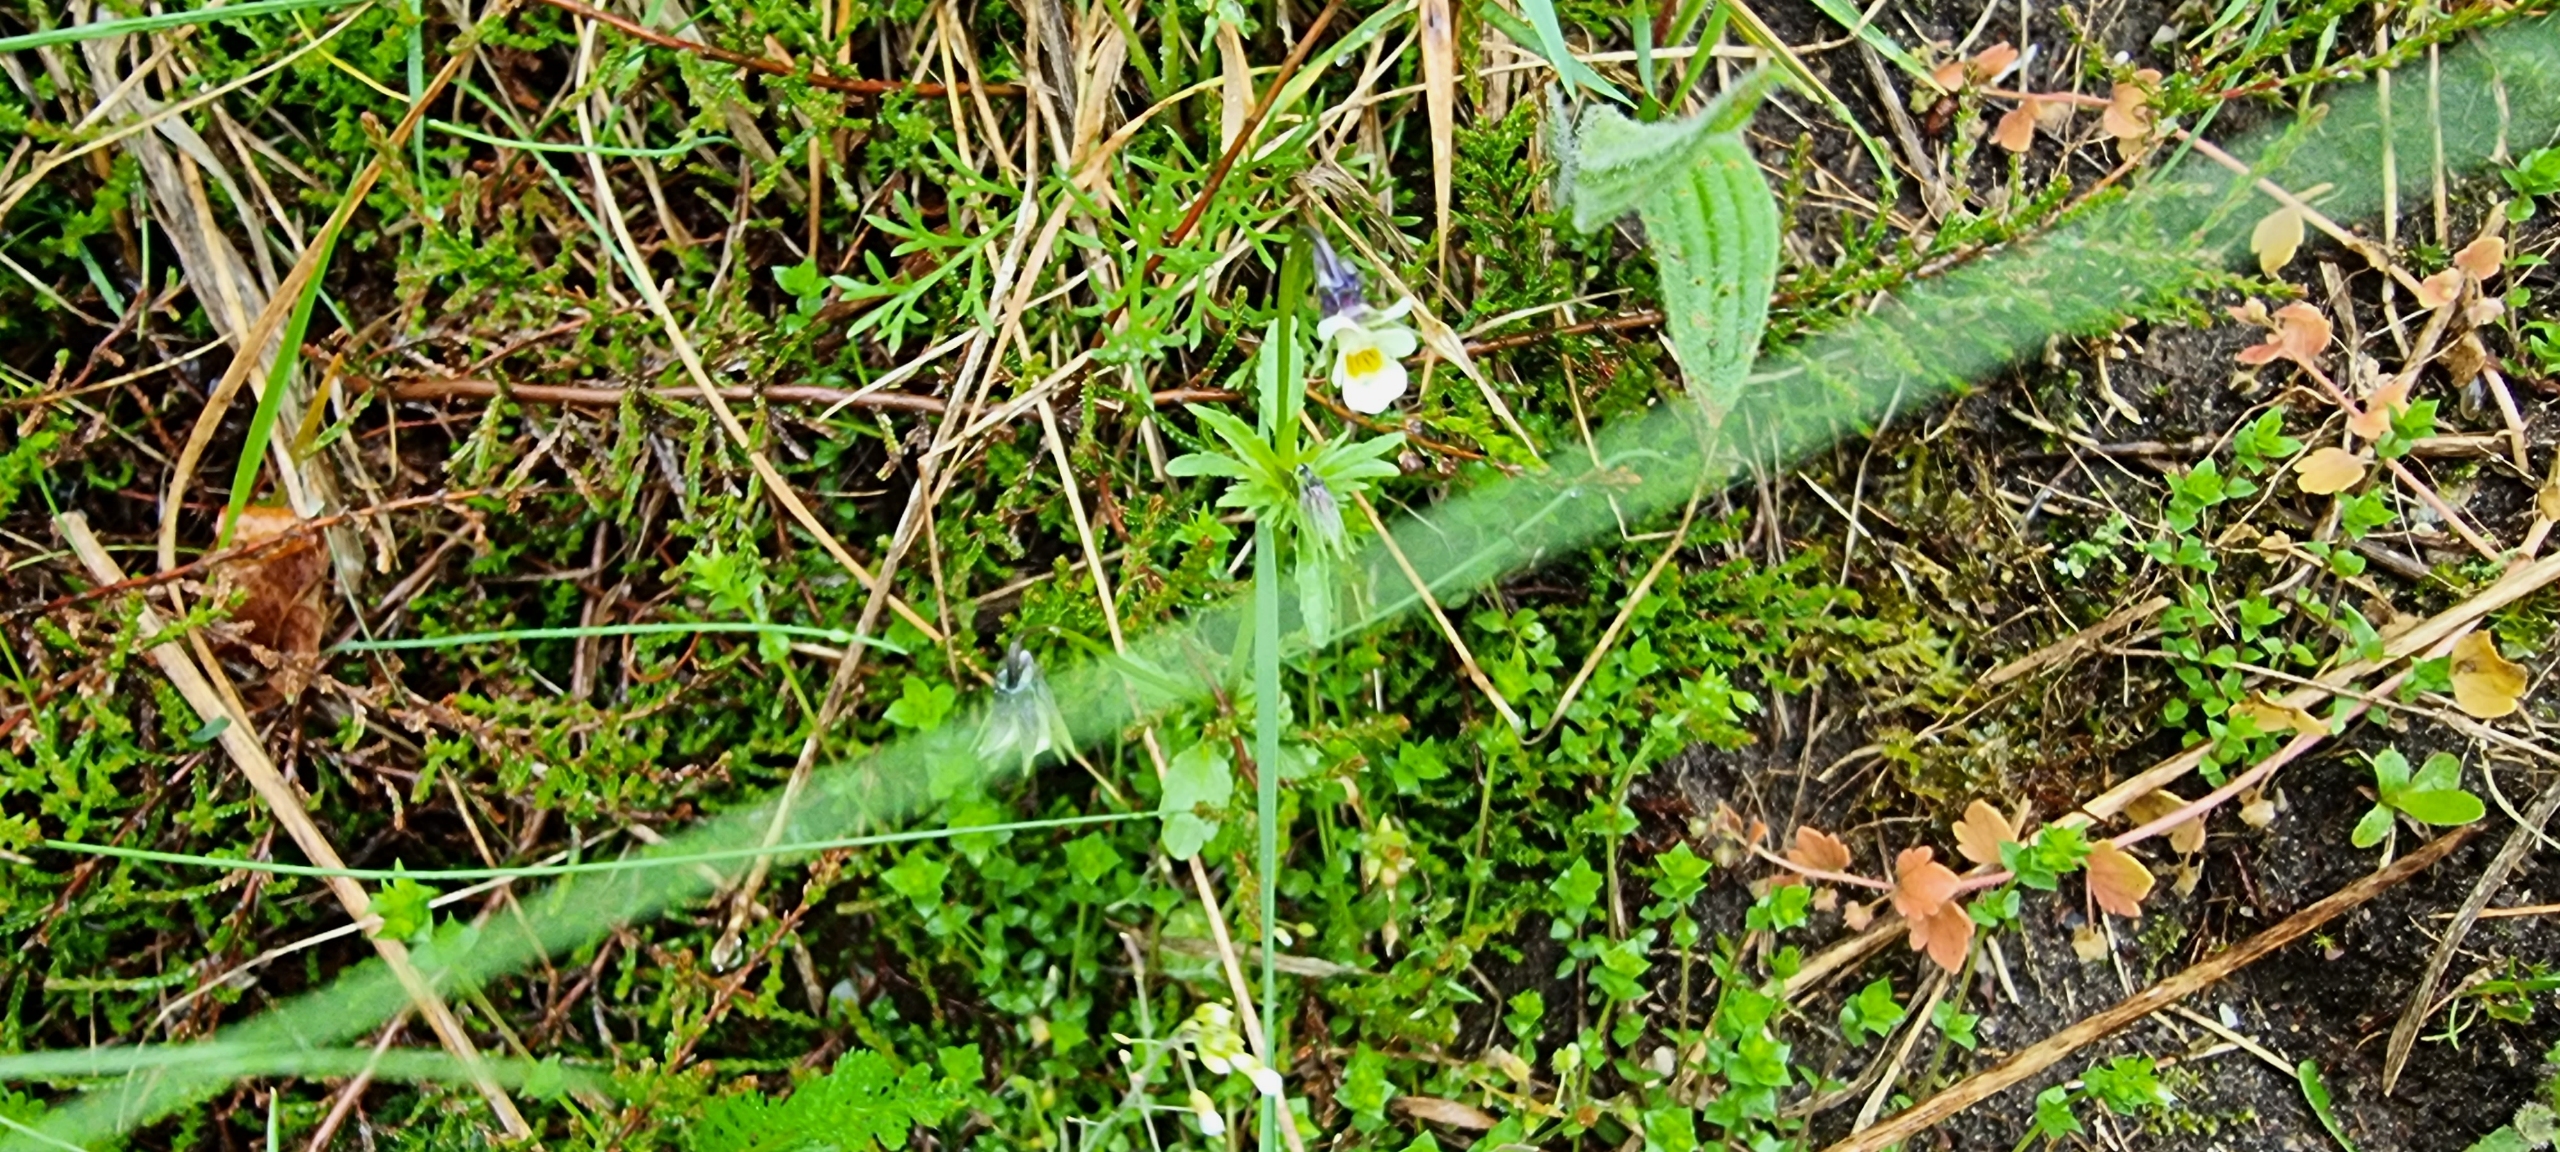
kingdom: Plantae
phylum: Tracheophyta
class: Magnoliopsida
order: Malpighiales
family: Violaceae
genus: Viola
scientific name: Viola arvensis
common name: Ager-stedmoderblomst
